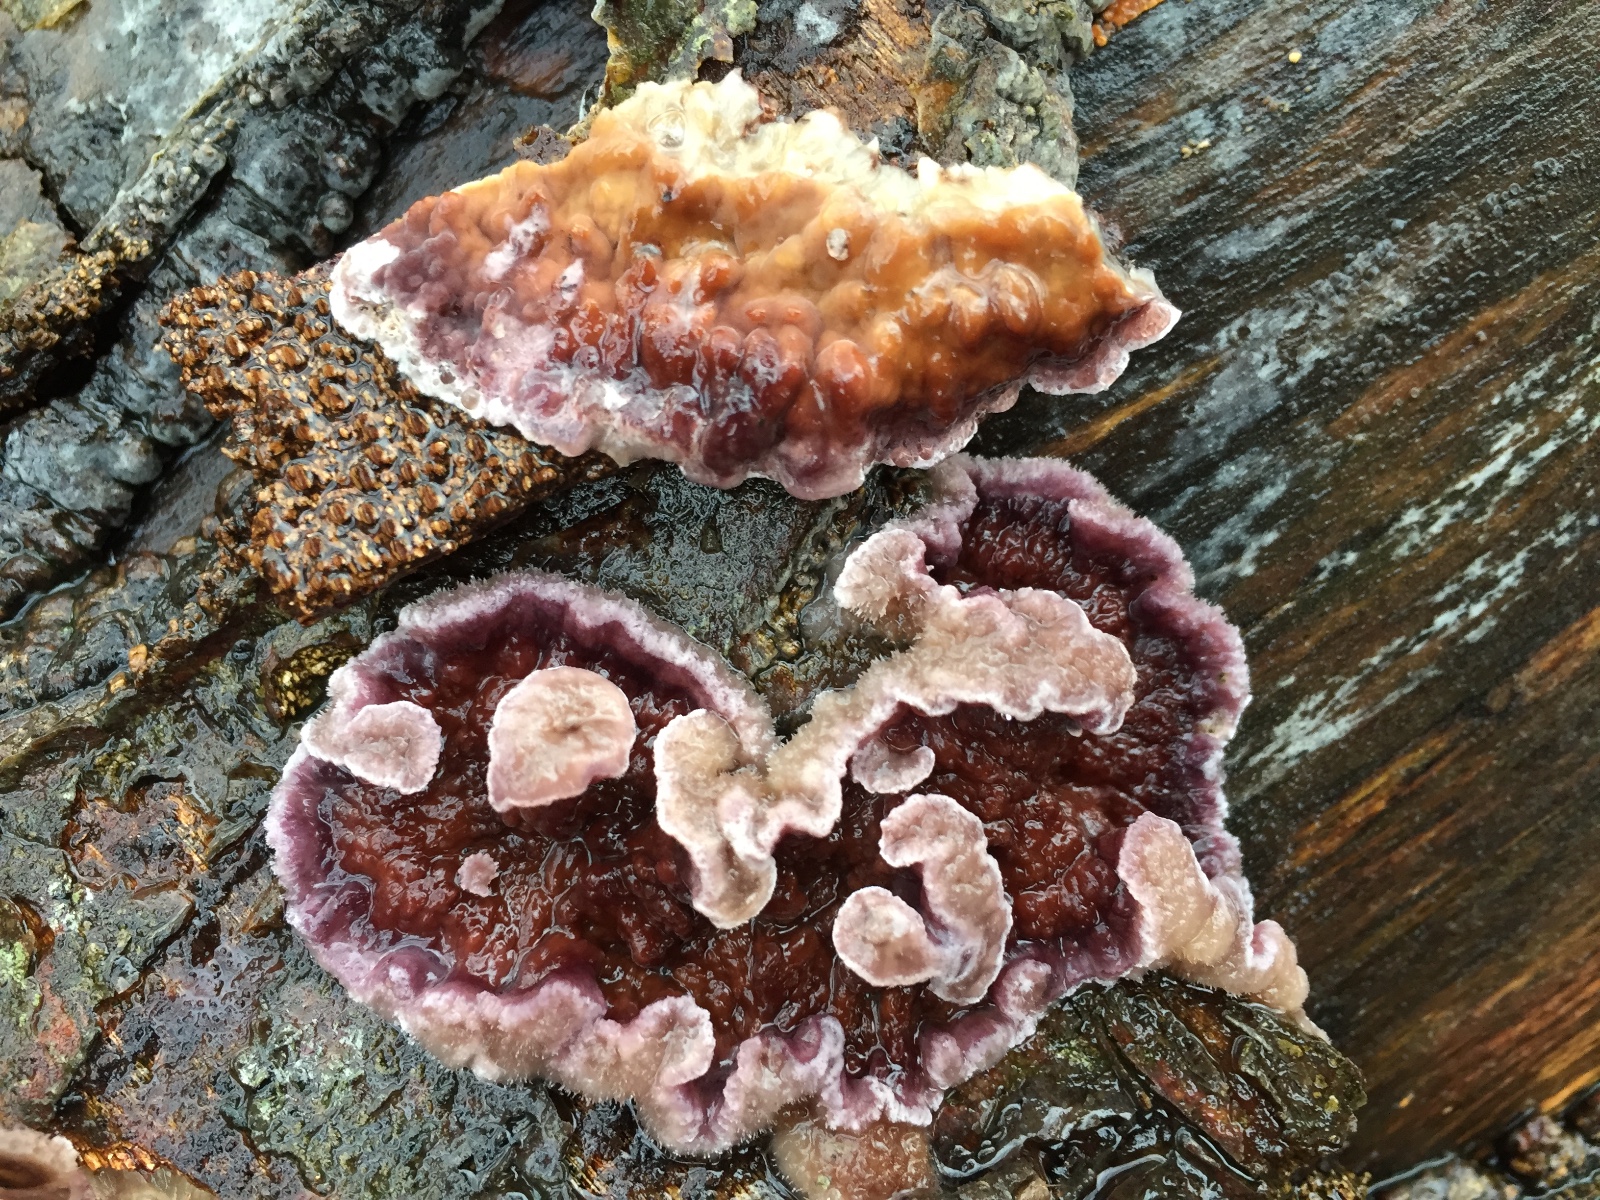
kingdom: Fungi
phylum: Basidiomycota
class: Agaricomycetes
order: Agaricales
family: Cyphellaceae
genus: Chondrostereum
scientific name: Chondrostereum purpureum
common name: purpurlædersvamp
